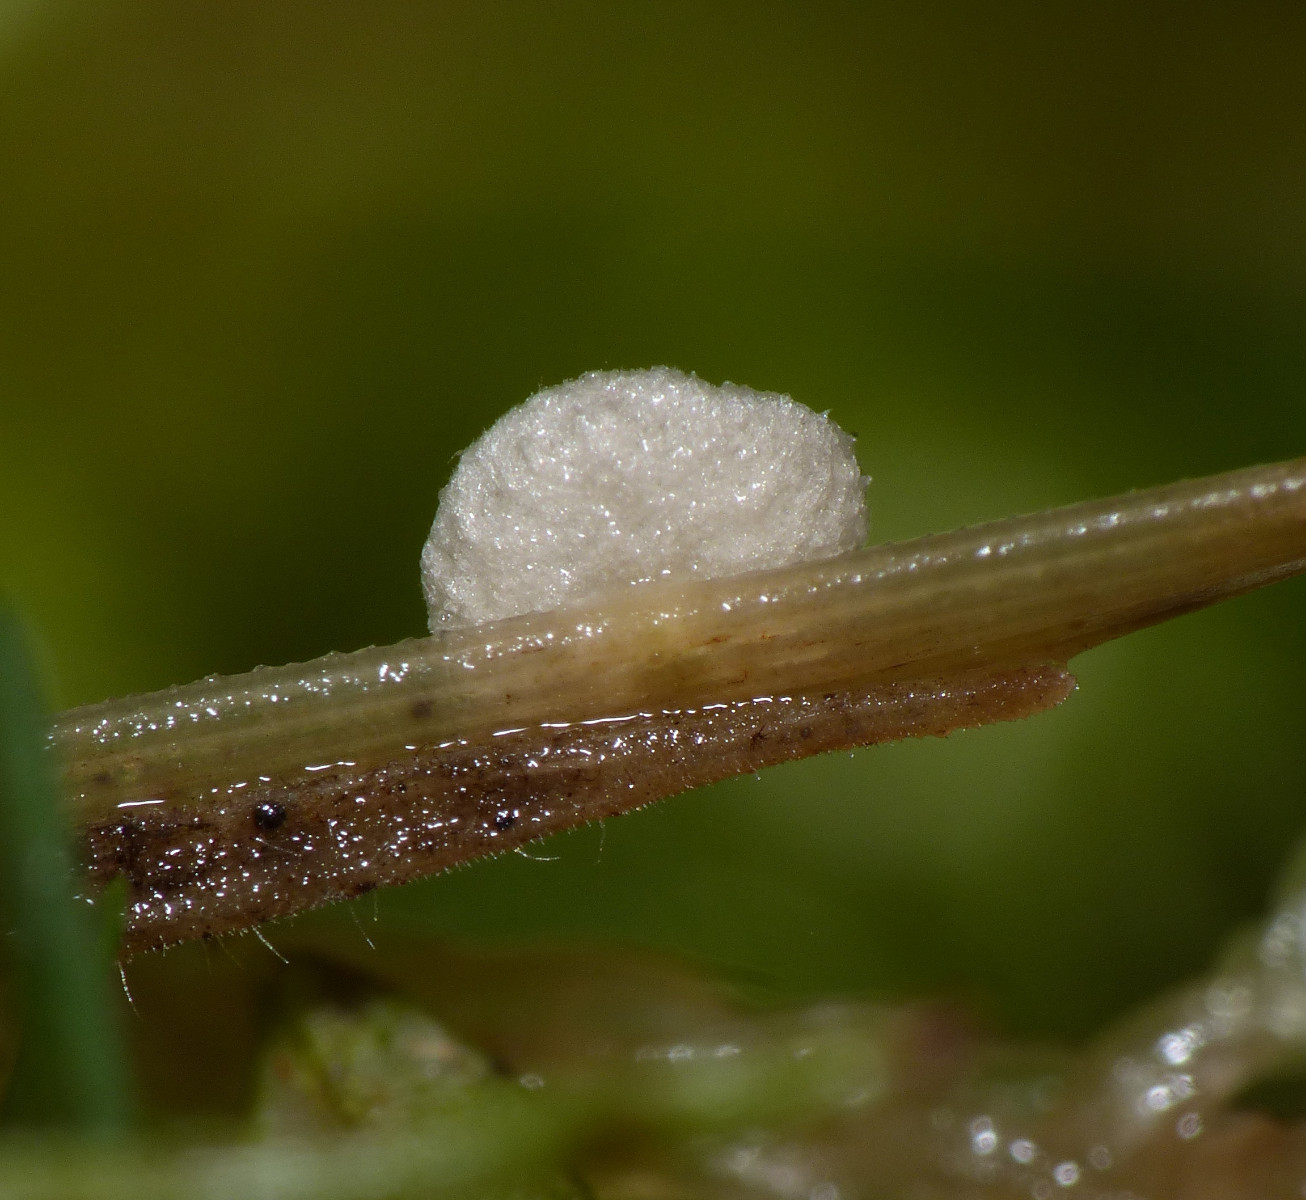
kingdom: Fungi
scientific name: Fungi
